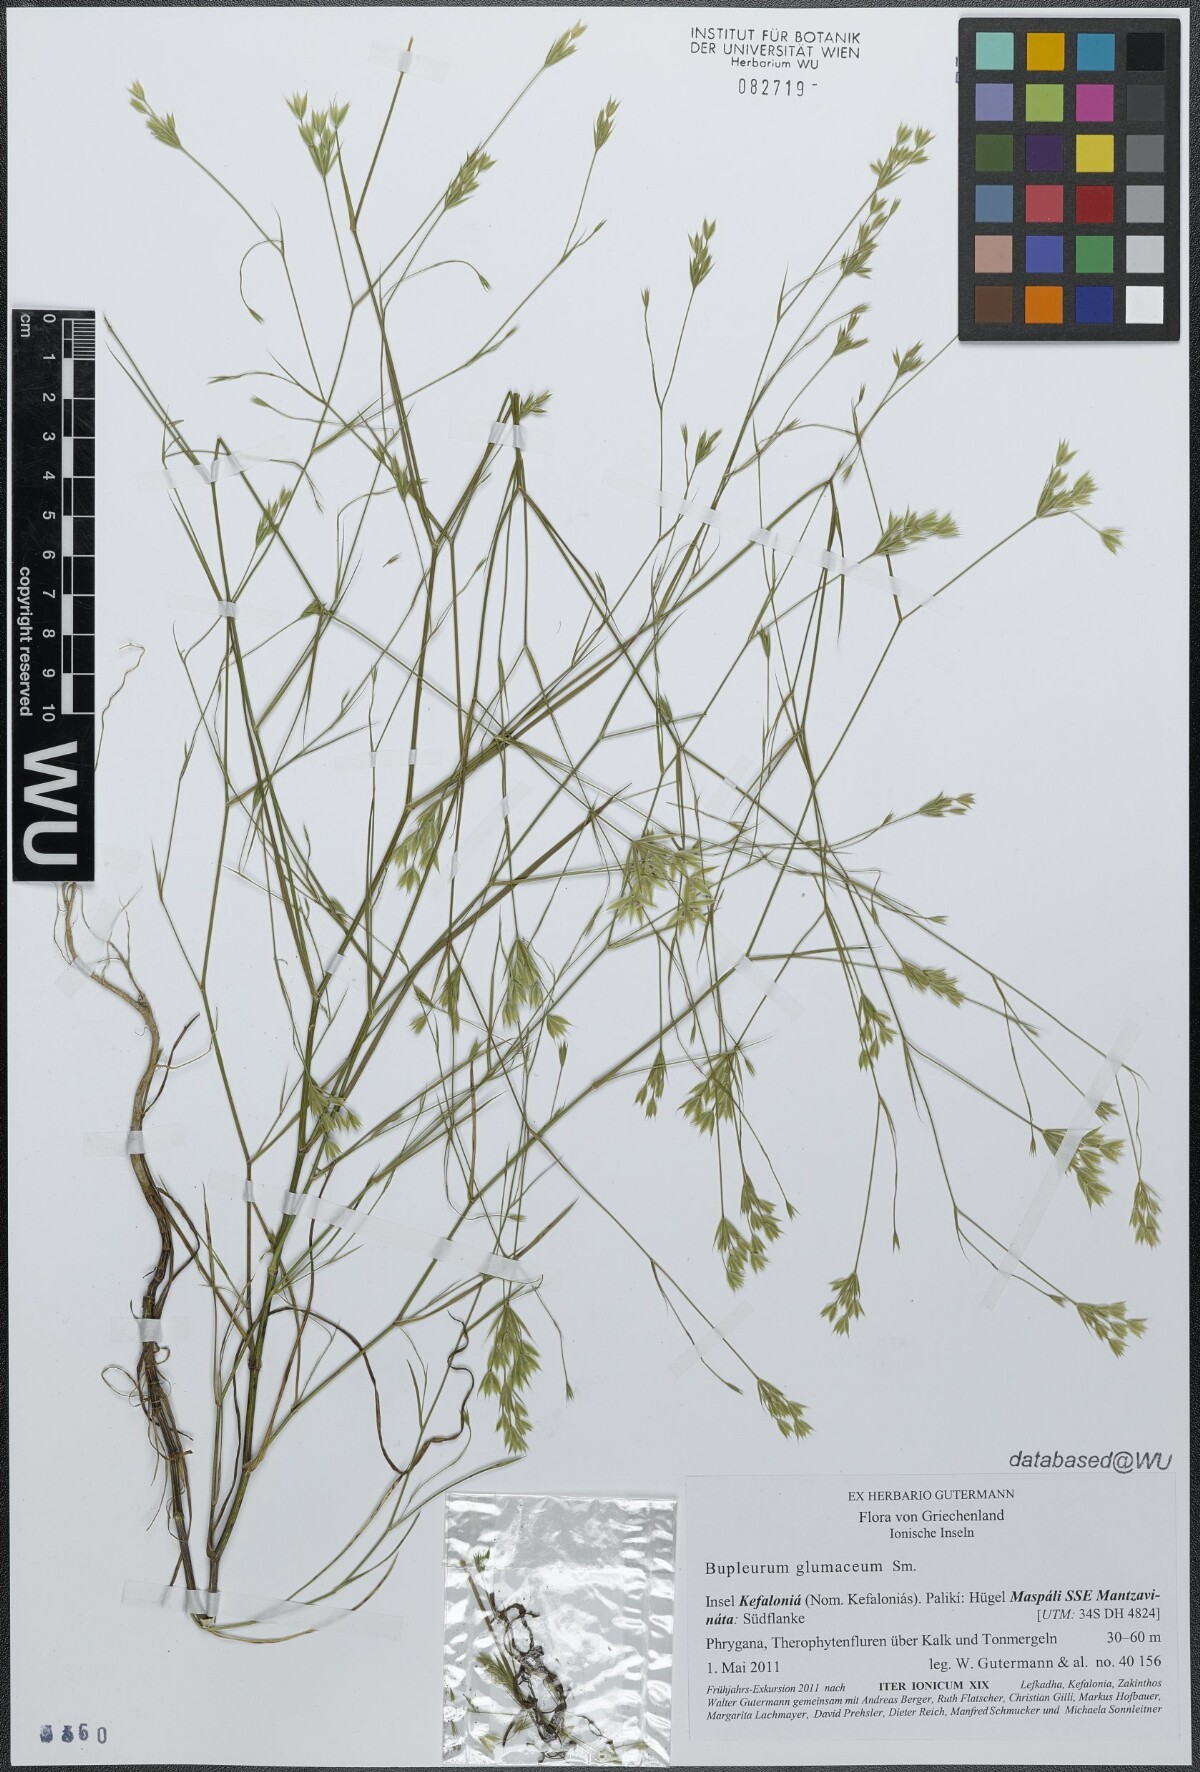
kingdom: Plantae
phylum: Tracheophyta
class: Magnoliopsida
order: Apiales
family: Apiaceae
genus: Bupleurum
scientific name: Bupleurum glumaceum
